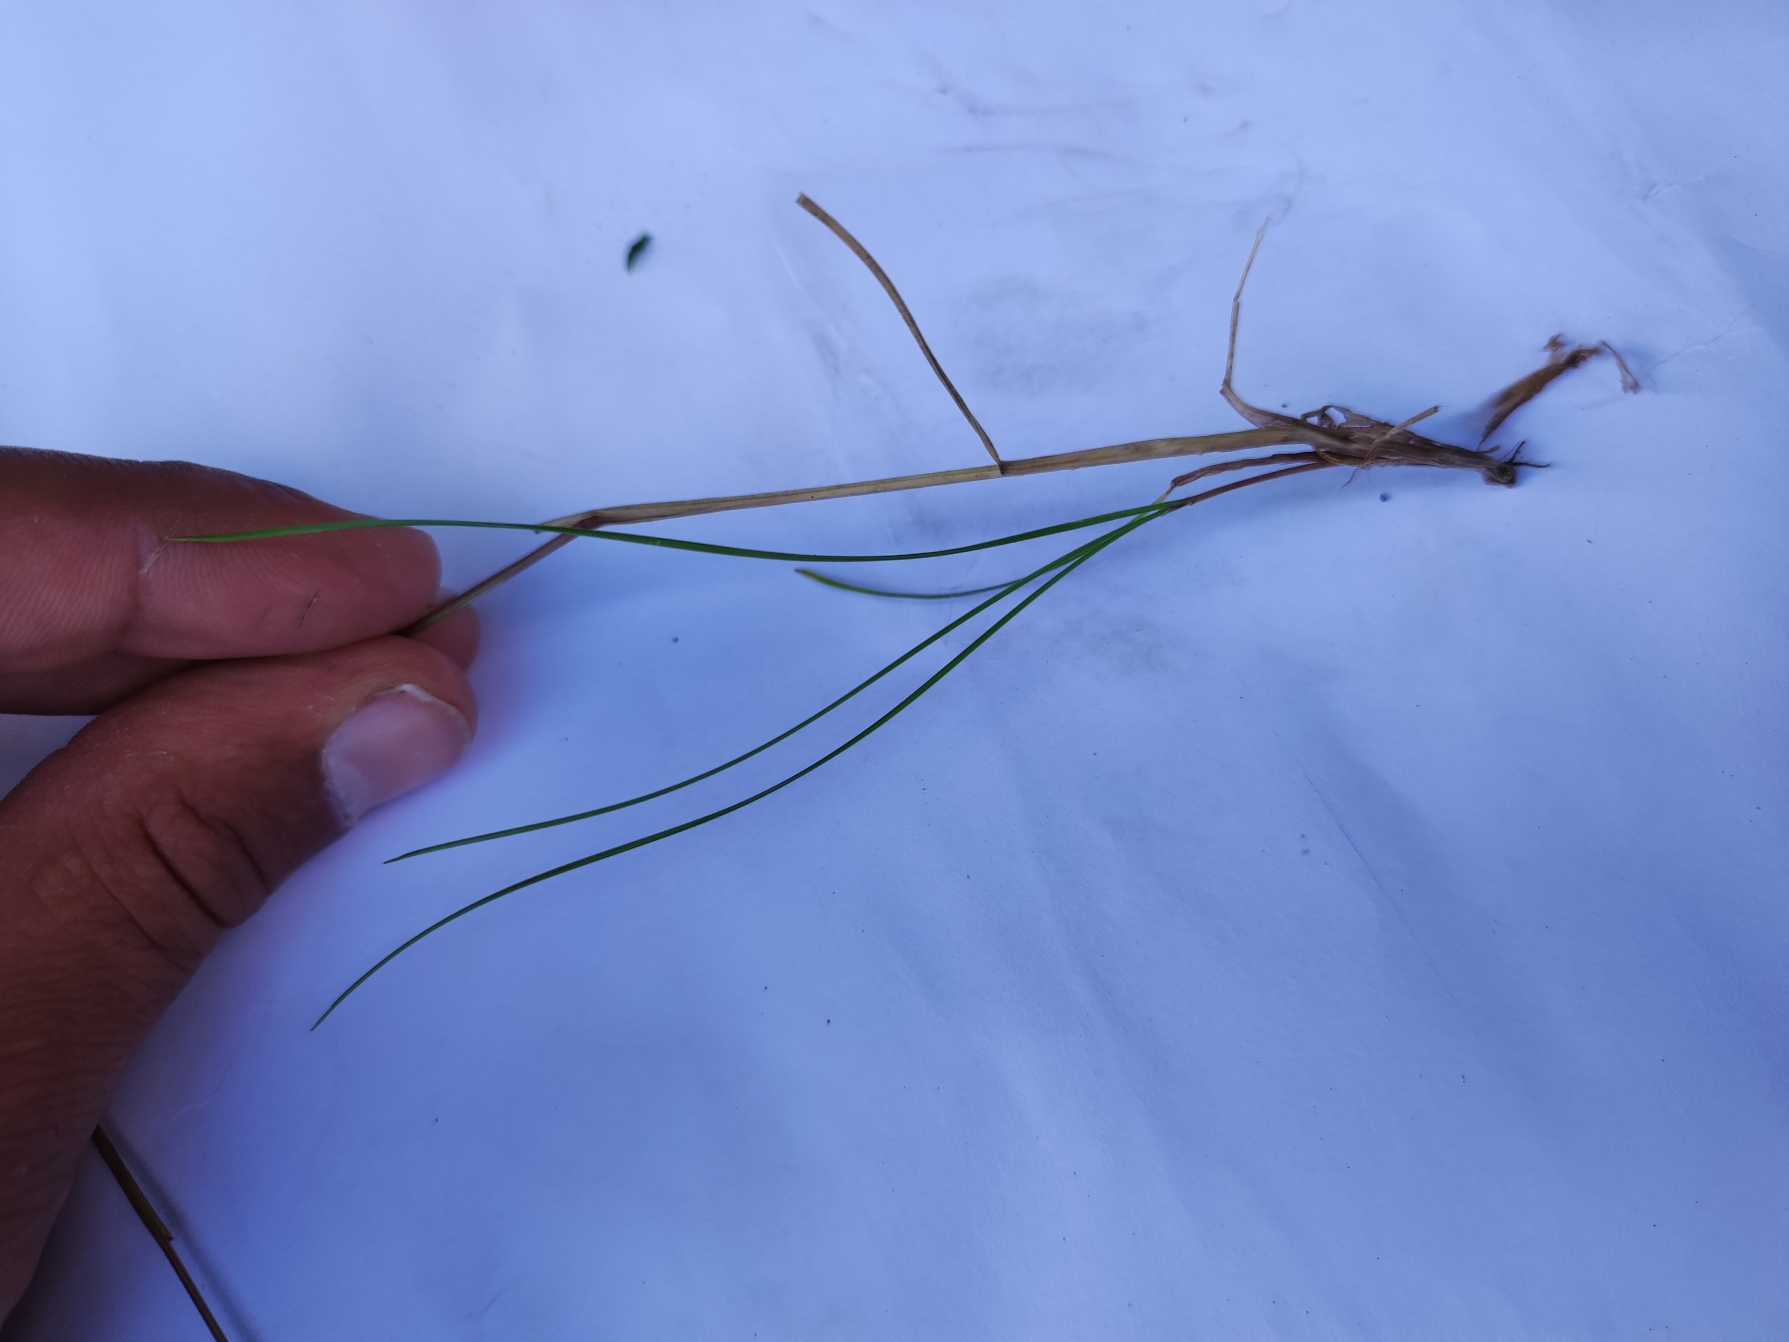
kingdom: Plantae
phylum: Tracheophyta
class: Liliopsida
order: Poales
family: Poaceae
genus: Festuca
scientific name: Festuca rubra
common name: Rød svingel
